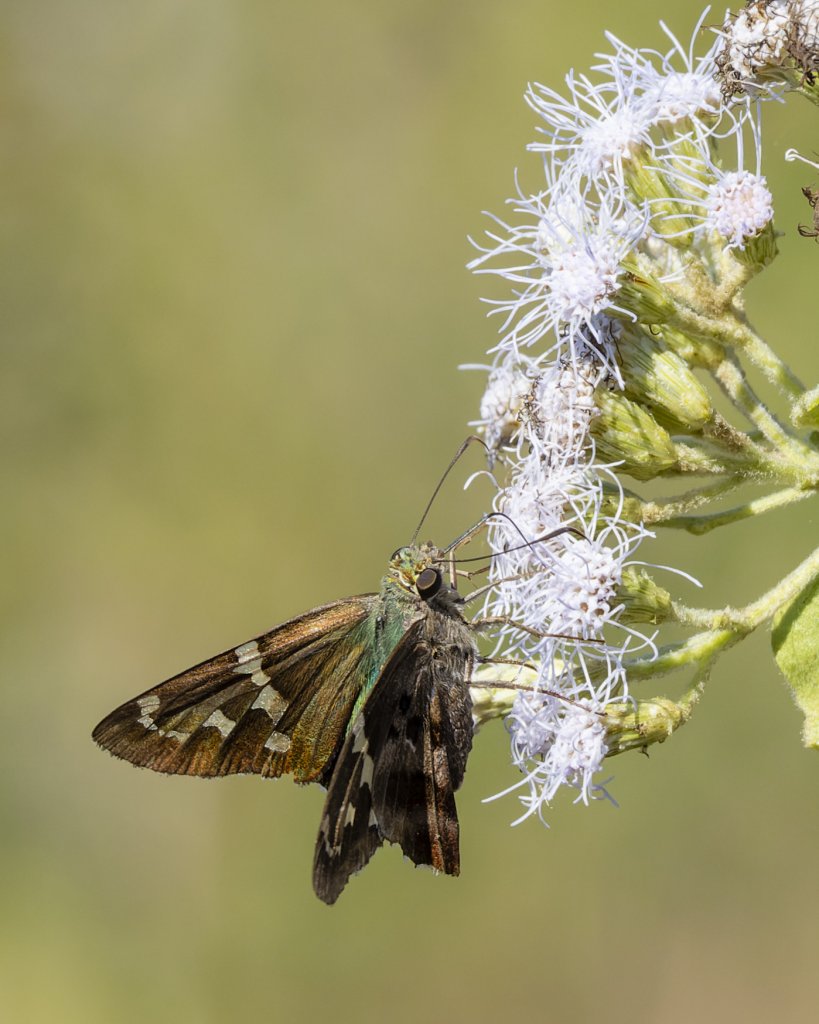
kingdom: Animalia
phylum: Arthropoda
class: Insecta
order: Lepidoptera
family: Hesperiidae
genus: Urbanus
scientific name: Urbanus proteus
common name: Long-tailed Skipper
